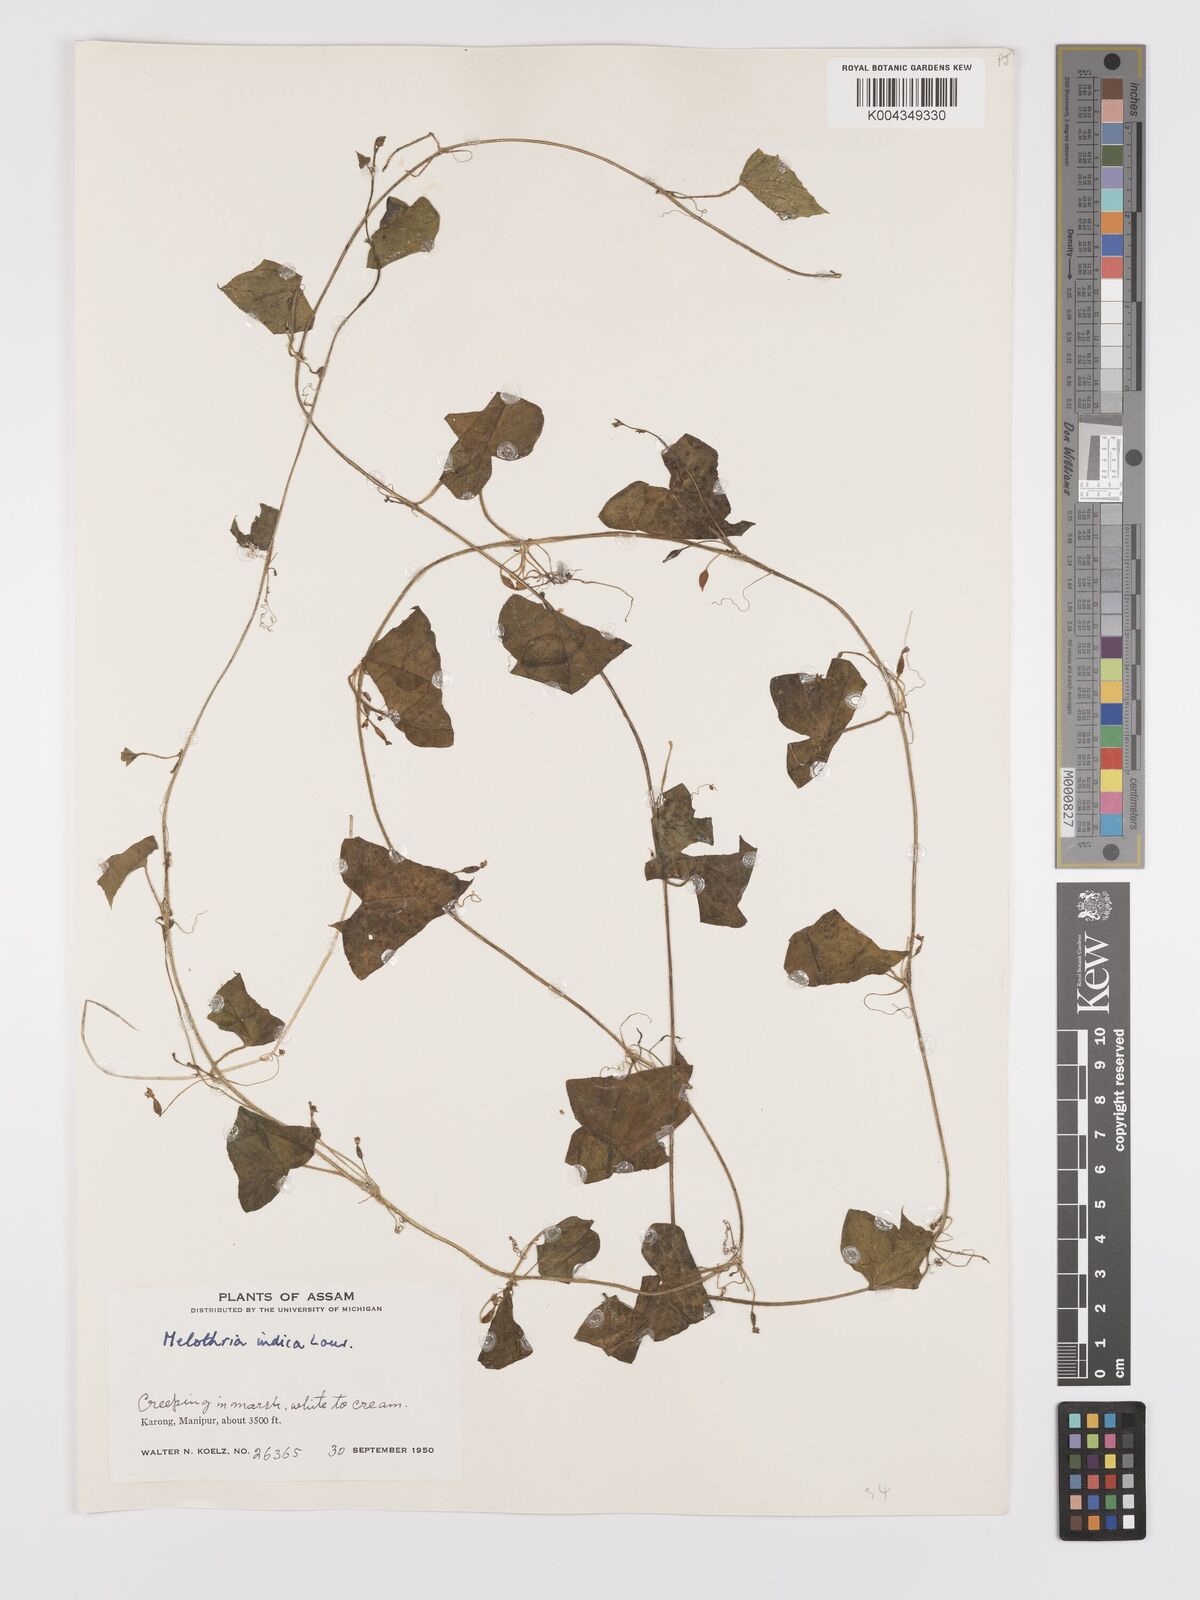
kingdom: Plantae
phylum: Tracheophyta
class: Magnoliopsida
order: Cucurbitales
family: Cucurbitaceae
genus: Zehneria
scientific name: Zehneria odorata
